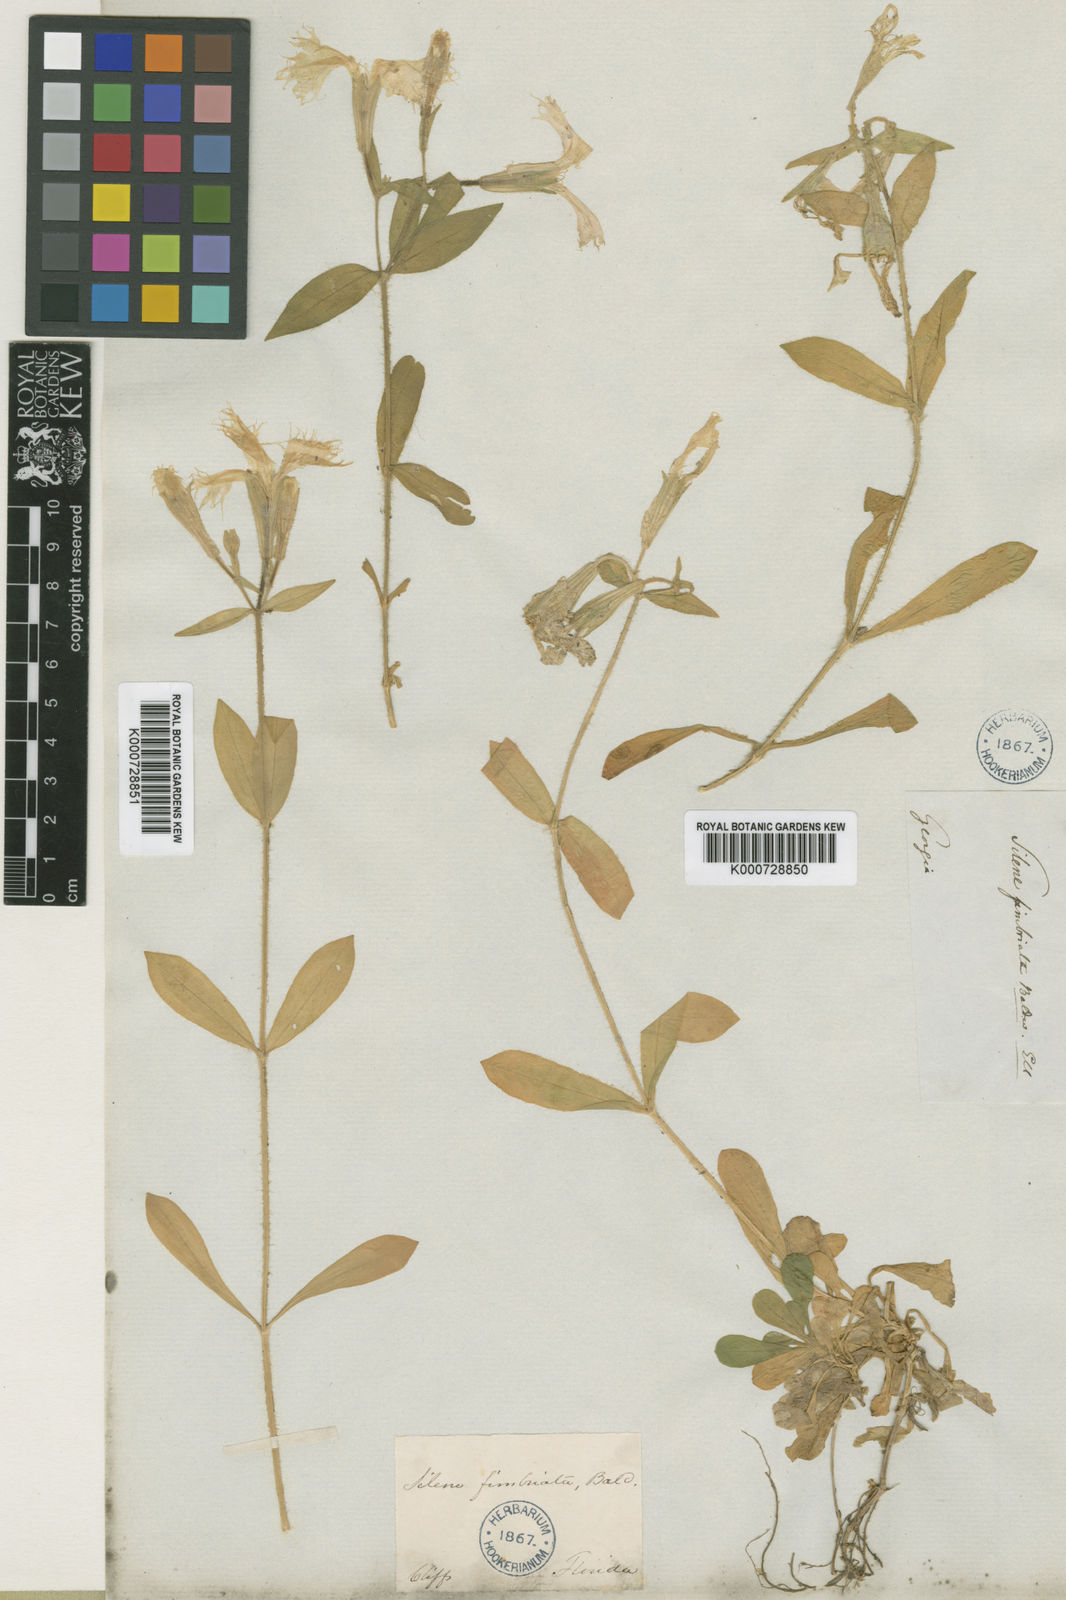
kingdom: Plantae
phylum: Tracheophyta
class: Magnoliopsida
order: Caryophyllales
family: Caryophyllaceae
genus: Silene
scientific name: Silene polypetala
